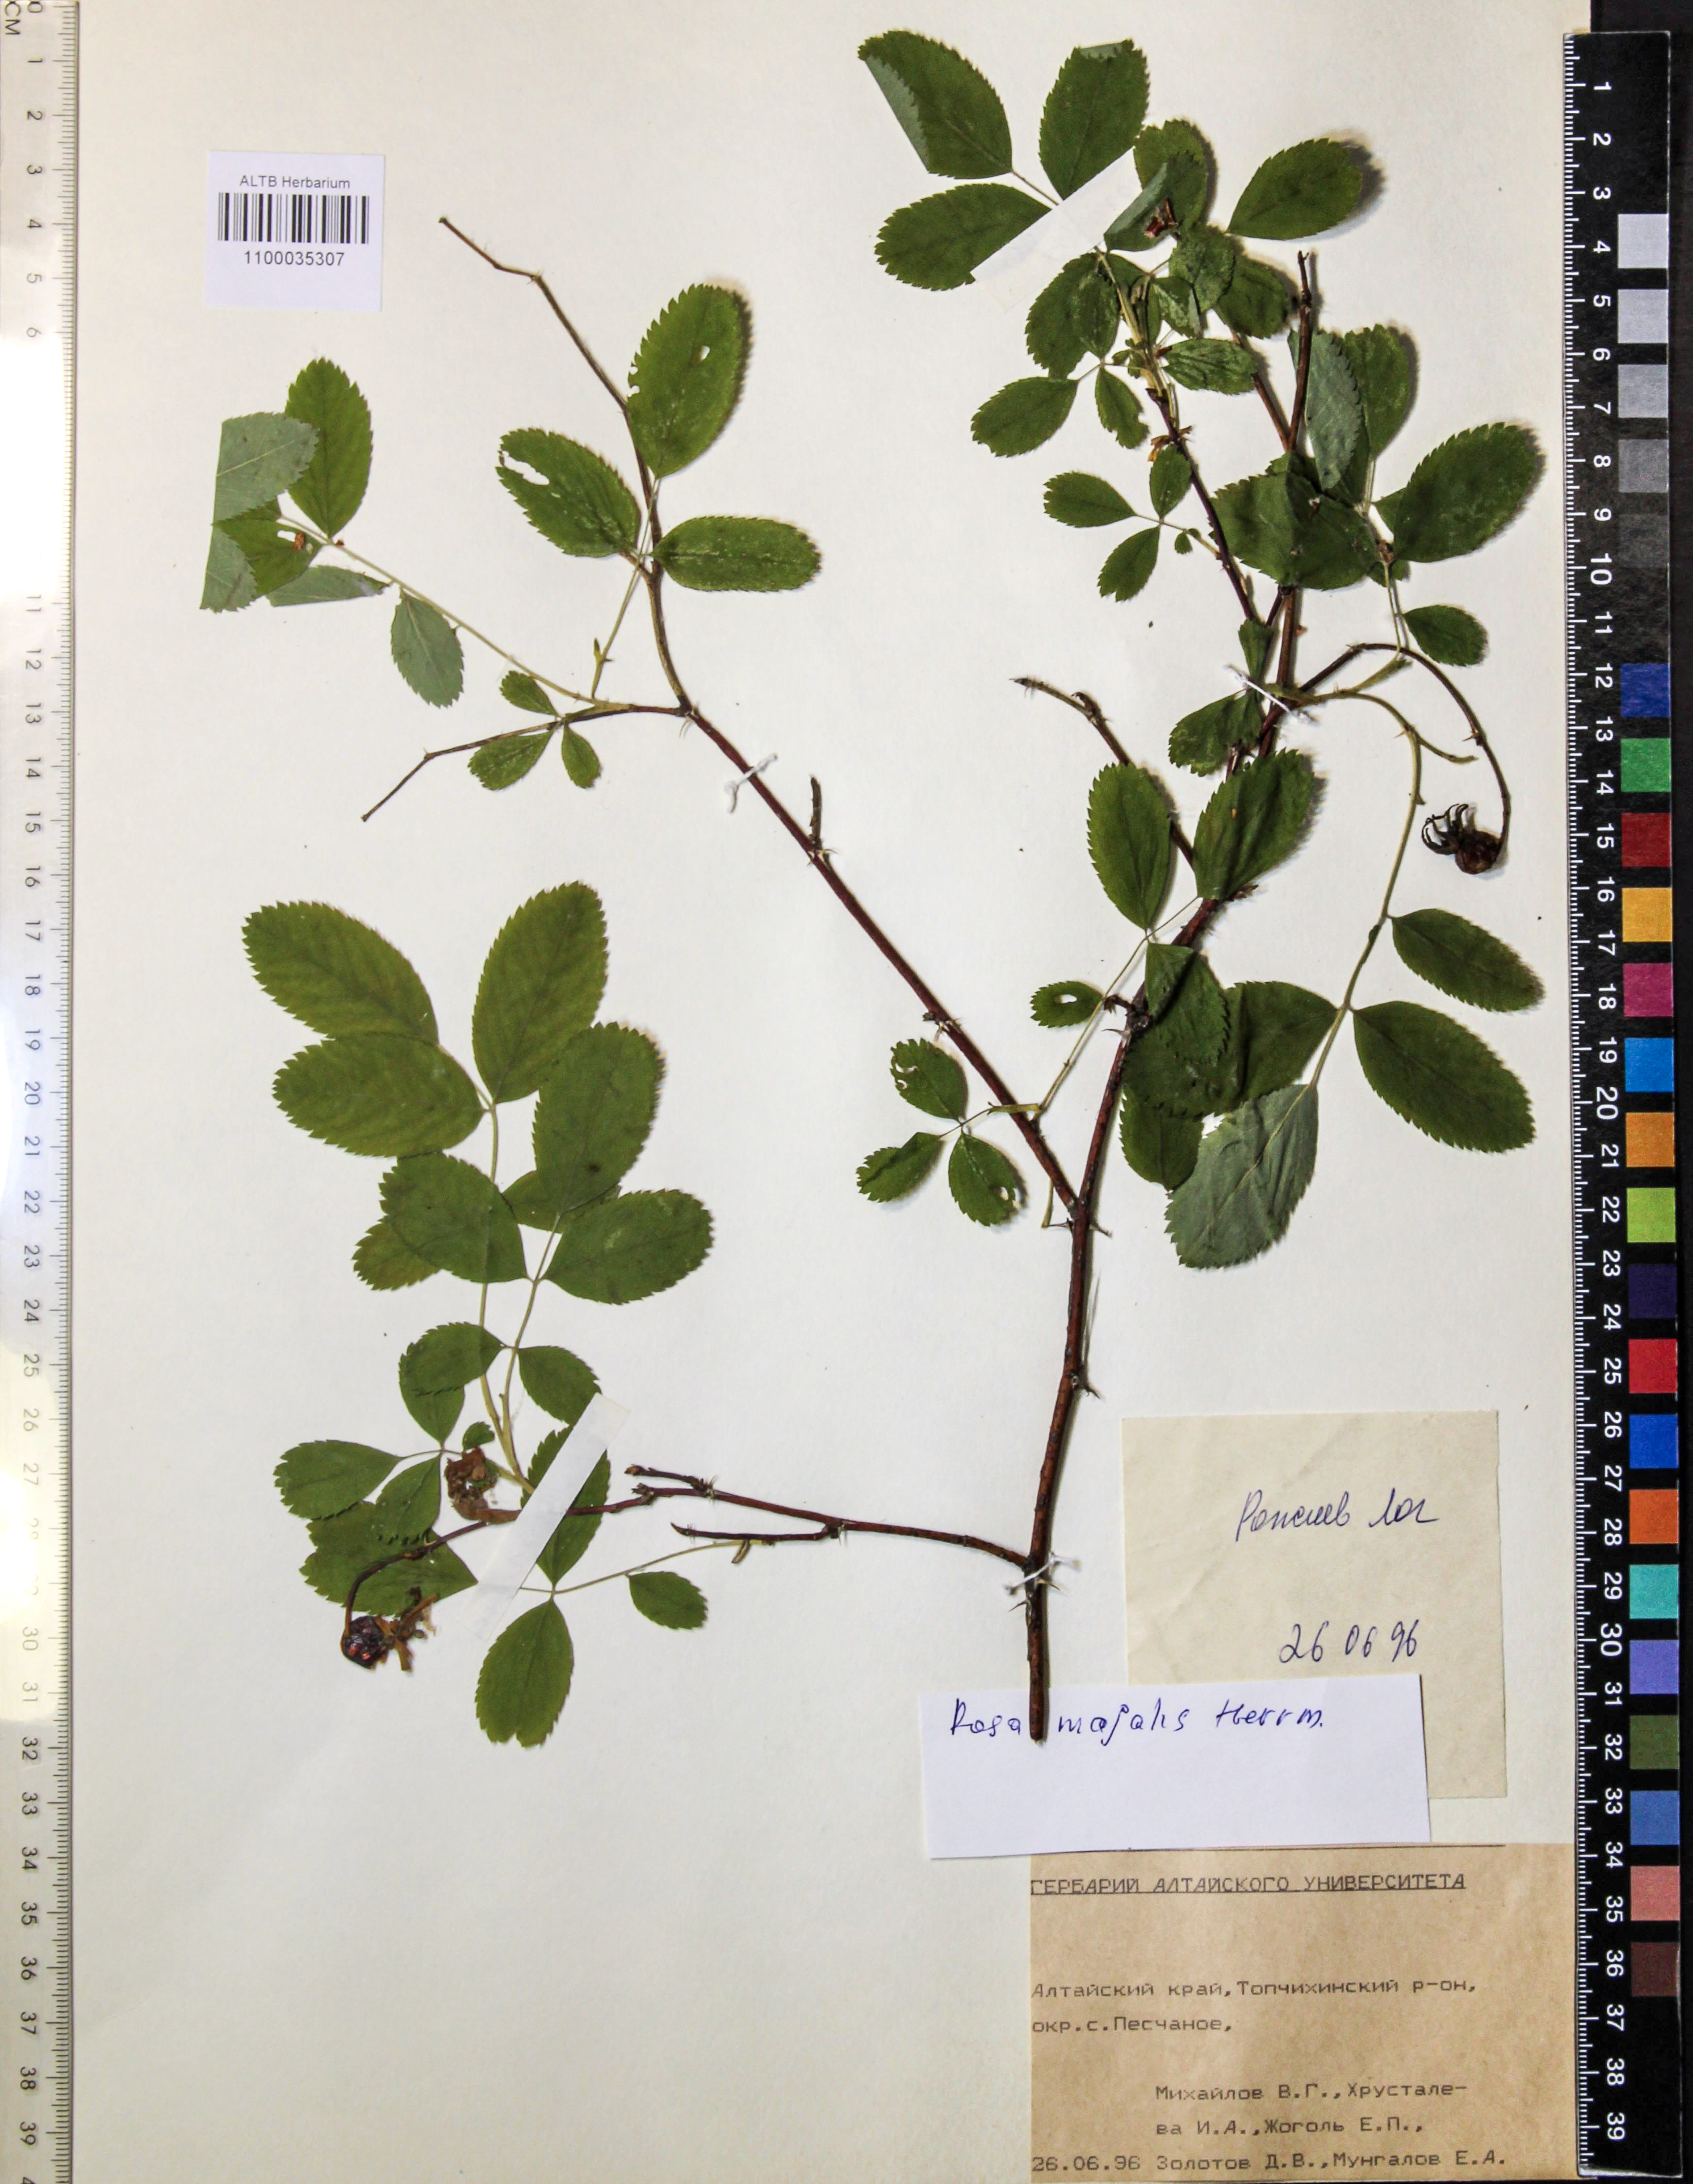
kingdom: Plantae
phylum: Tracheophyta
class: Magnoliopsida
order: Rosales
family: Rosaceae
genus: Rosa
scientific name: Rosa majalis
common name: Cinnamon rose
